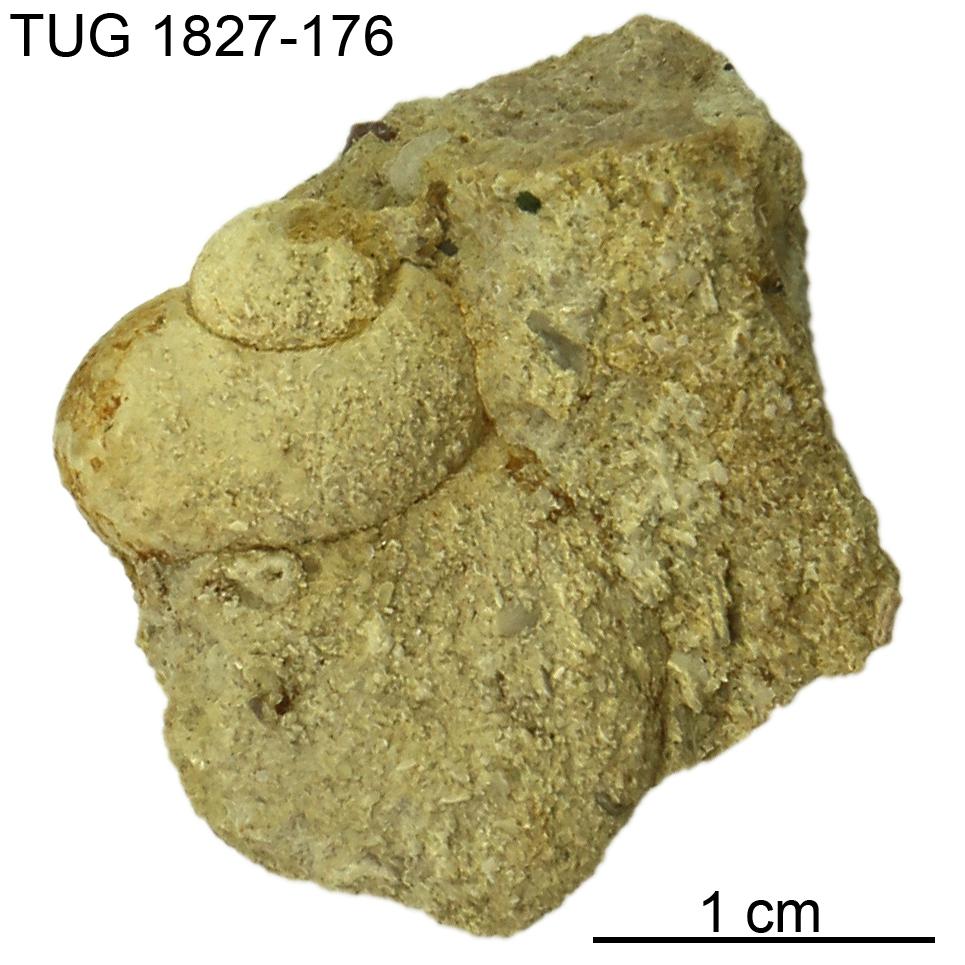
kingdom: Animalia
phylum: Mollusca
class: Gastropoda
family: Holopeidae
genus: Holopea
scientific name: Holopea
